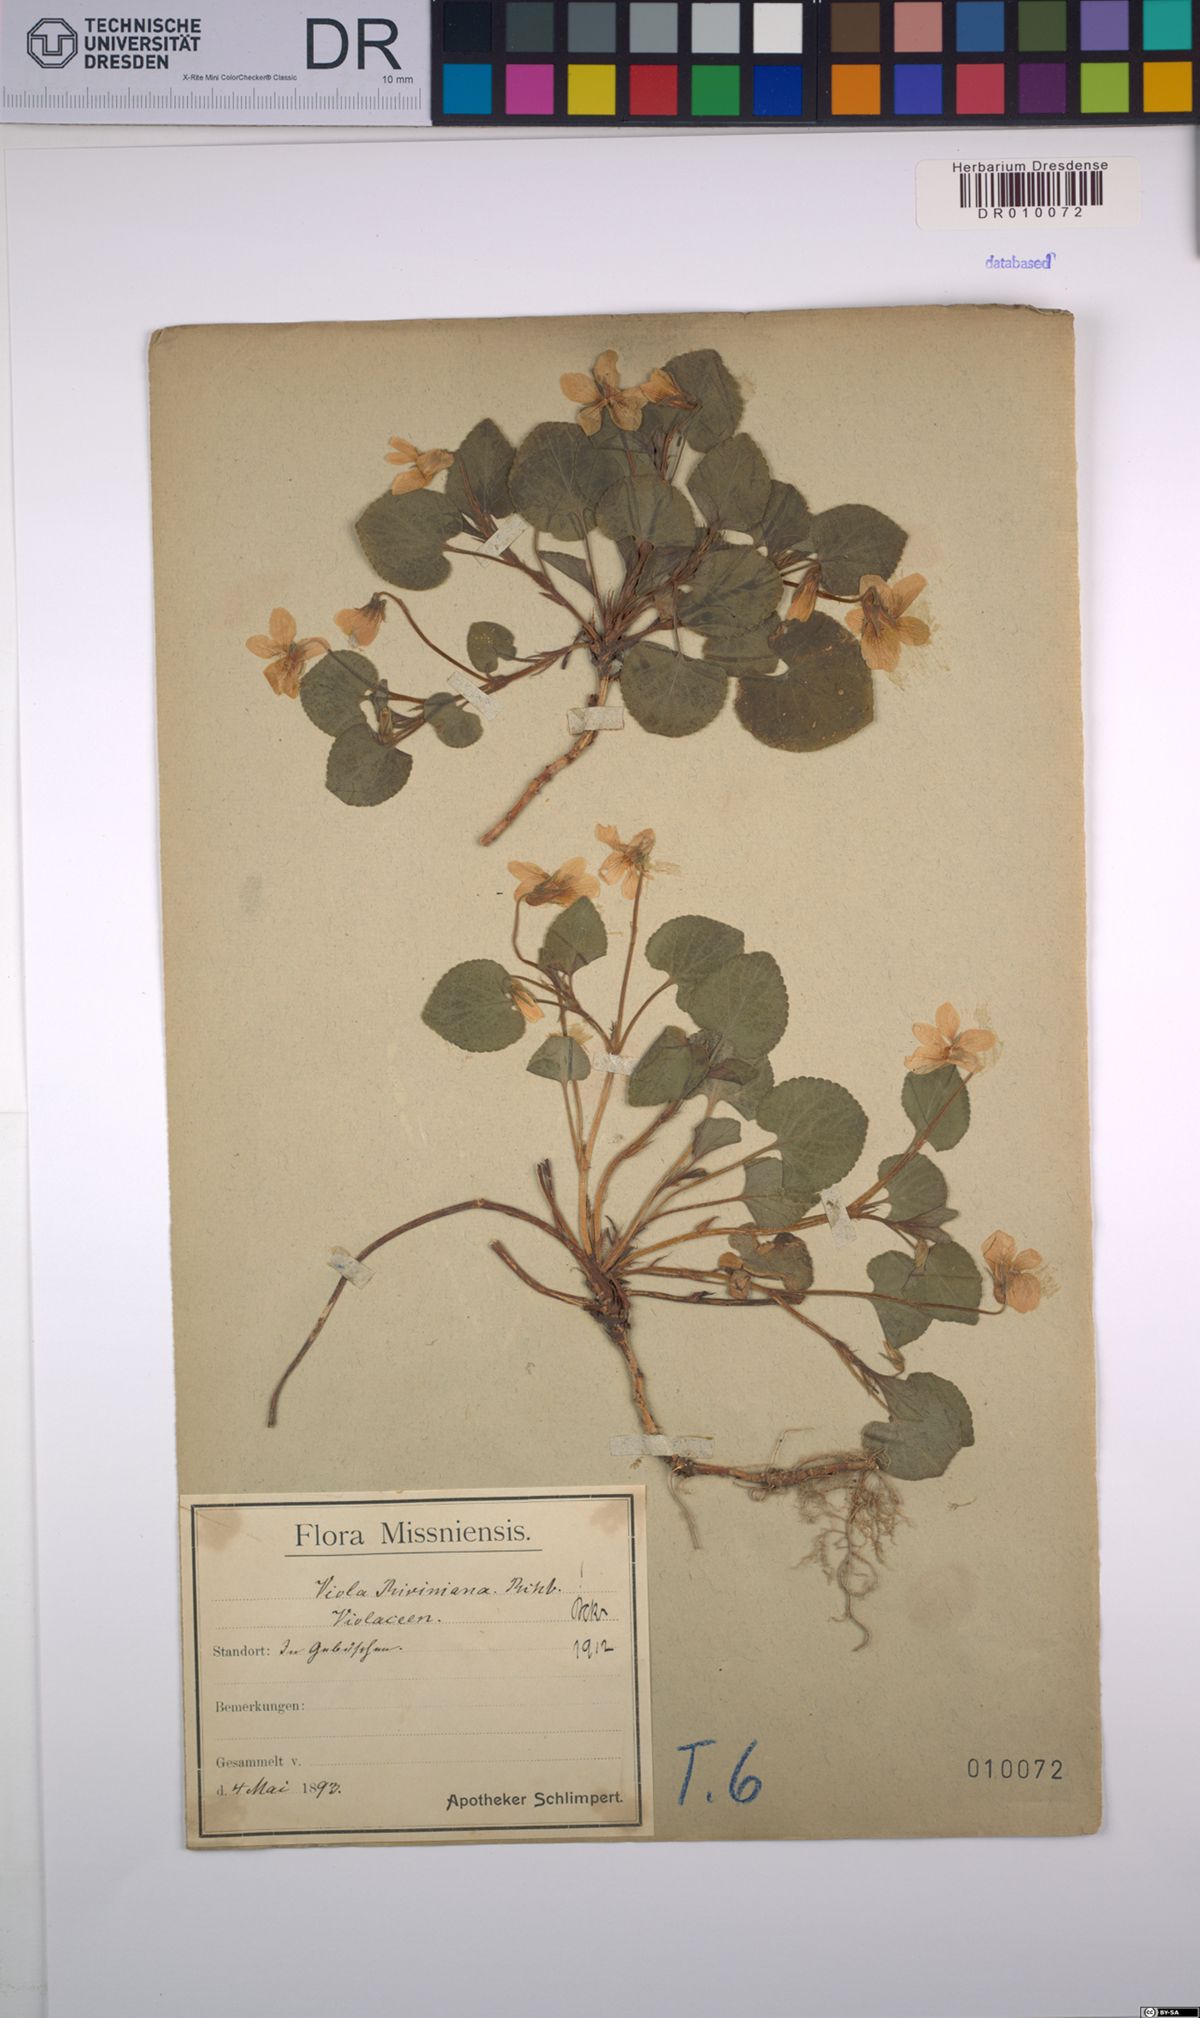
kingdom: Plantae
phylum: Tracheophyta
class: Magnoliopsida
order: Malpighiales
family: Violaceae
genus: Viola
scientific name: Viola riviniana
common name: Common dog-violet
